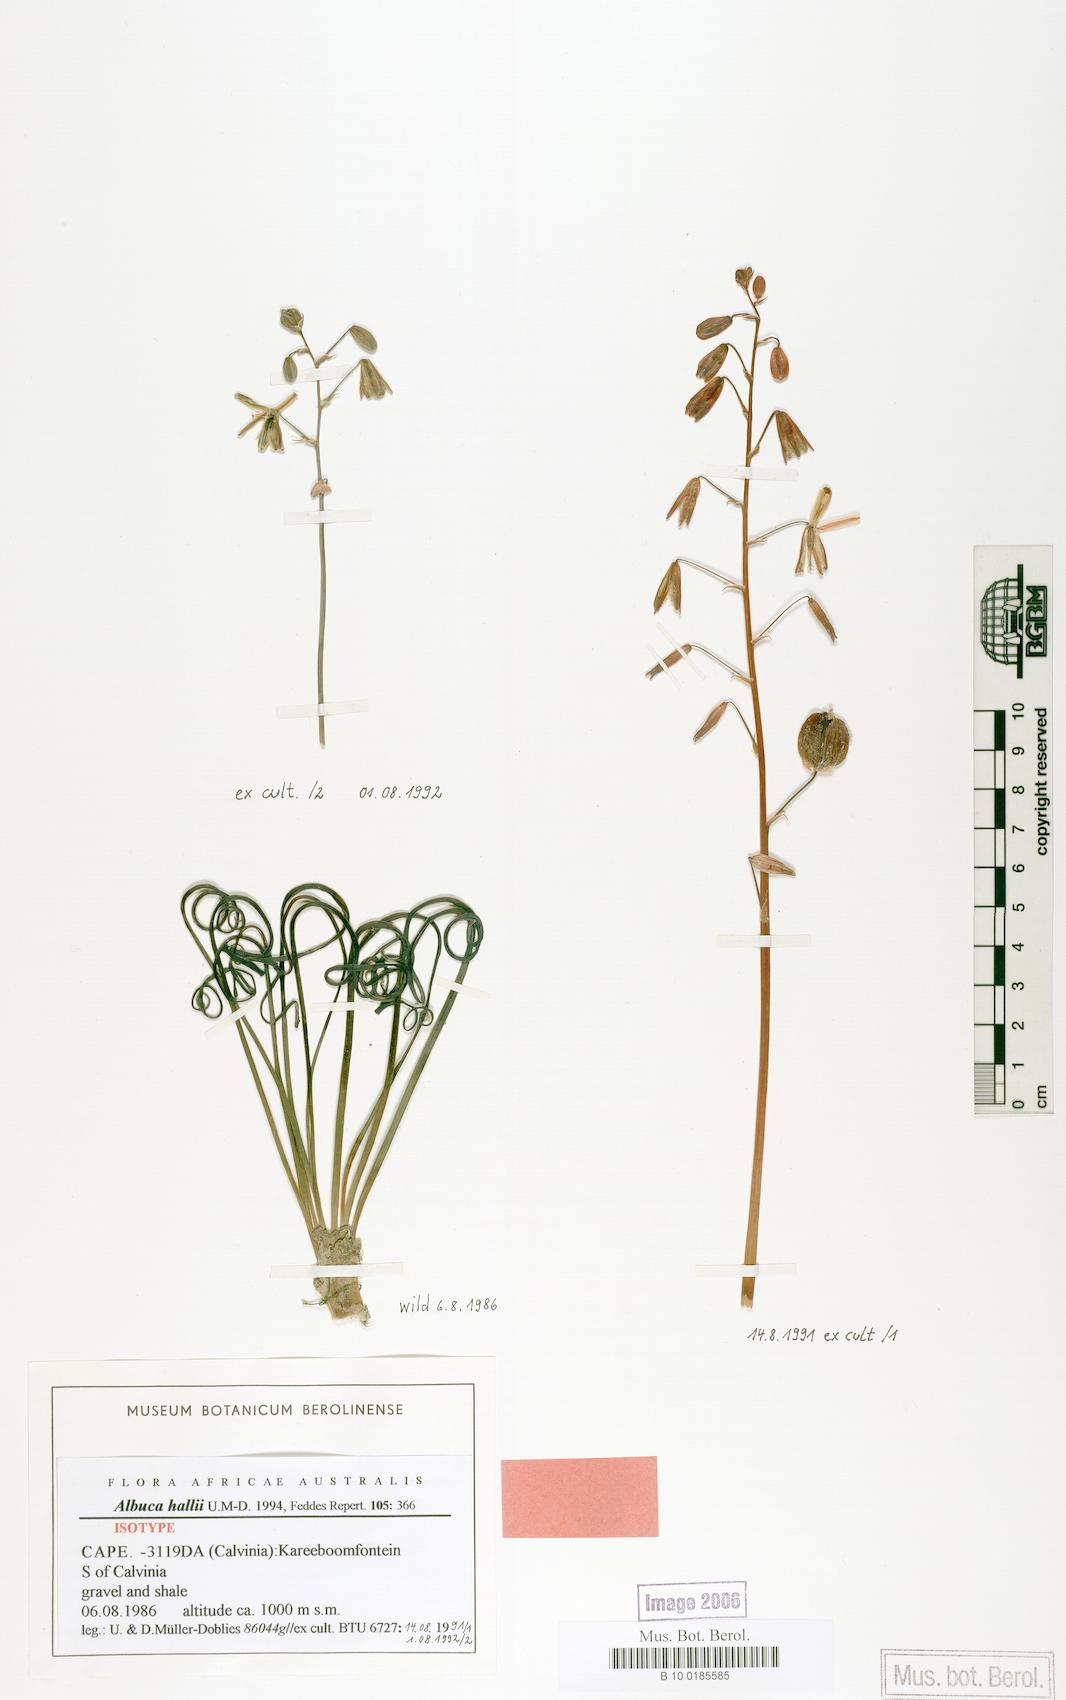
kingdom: Plantae
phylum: Tracheophyta
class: Liliopsida
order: Asparagales
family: Asparagaceae
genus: Albuca
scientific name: Albuca hallii
